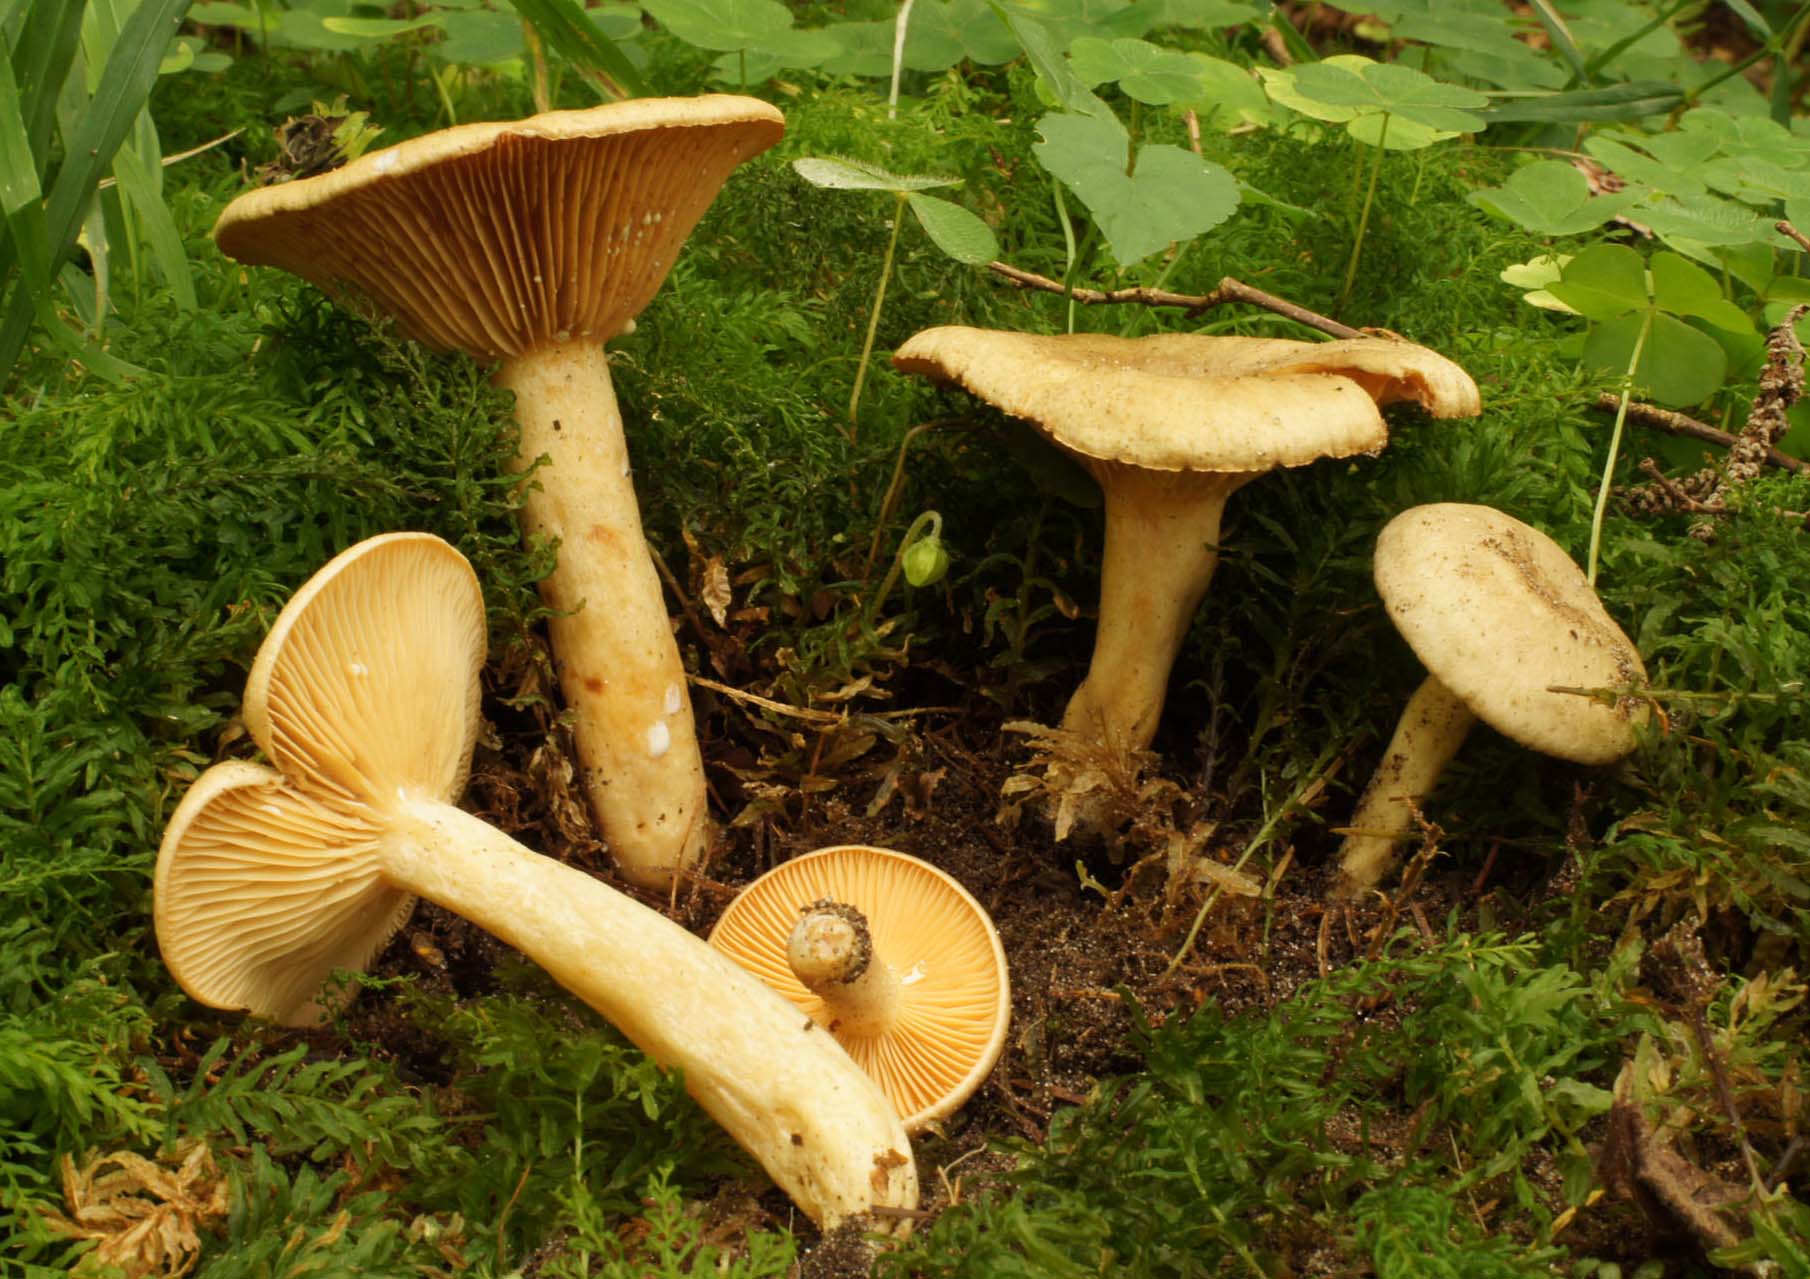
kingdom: Fungi
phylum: Basidiomycota
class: Agaricomycetes
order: Russulales
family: Russulaceae
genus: Lactarius
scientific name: Lactarius pyrogalus
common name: hassel-mælkehat
